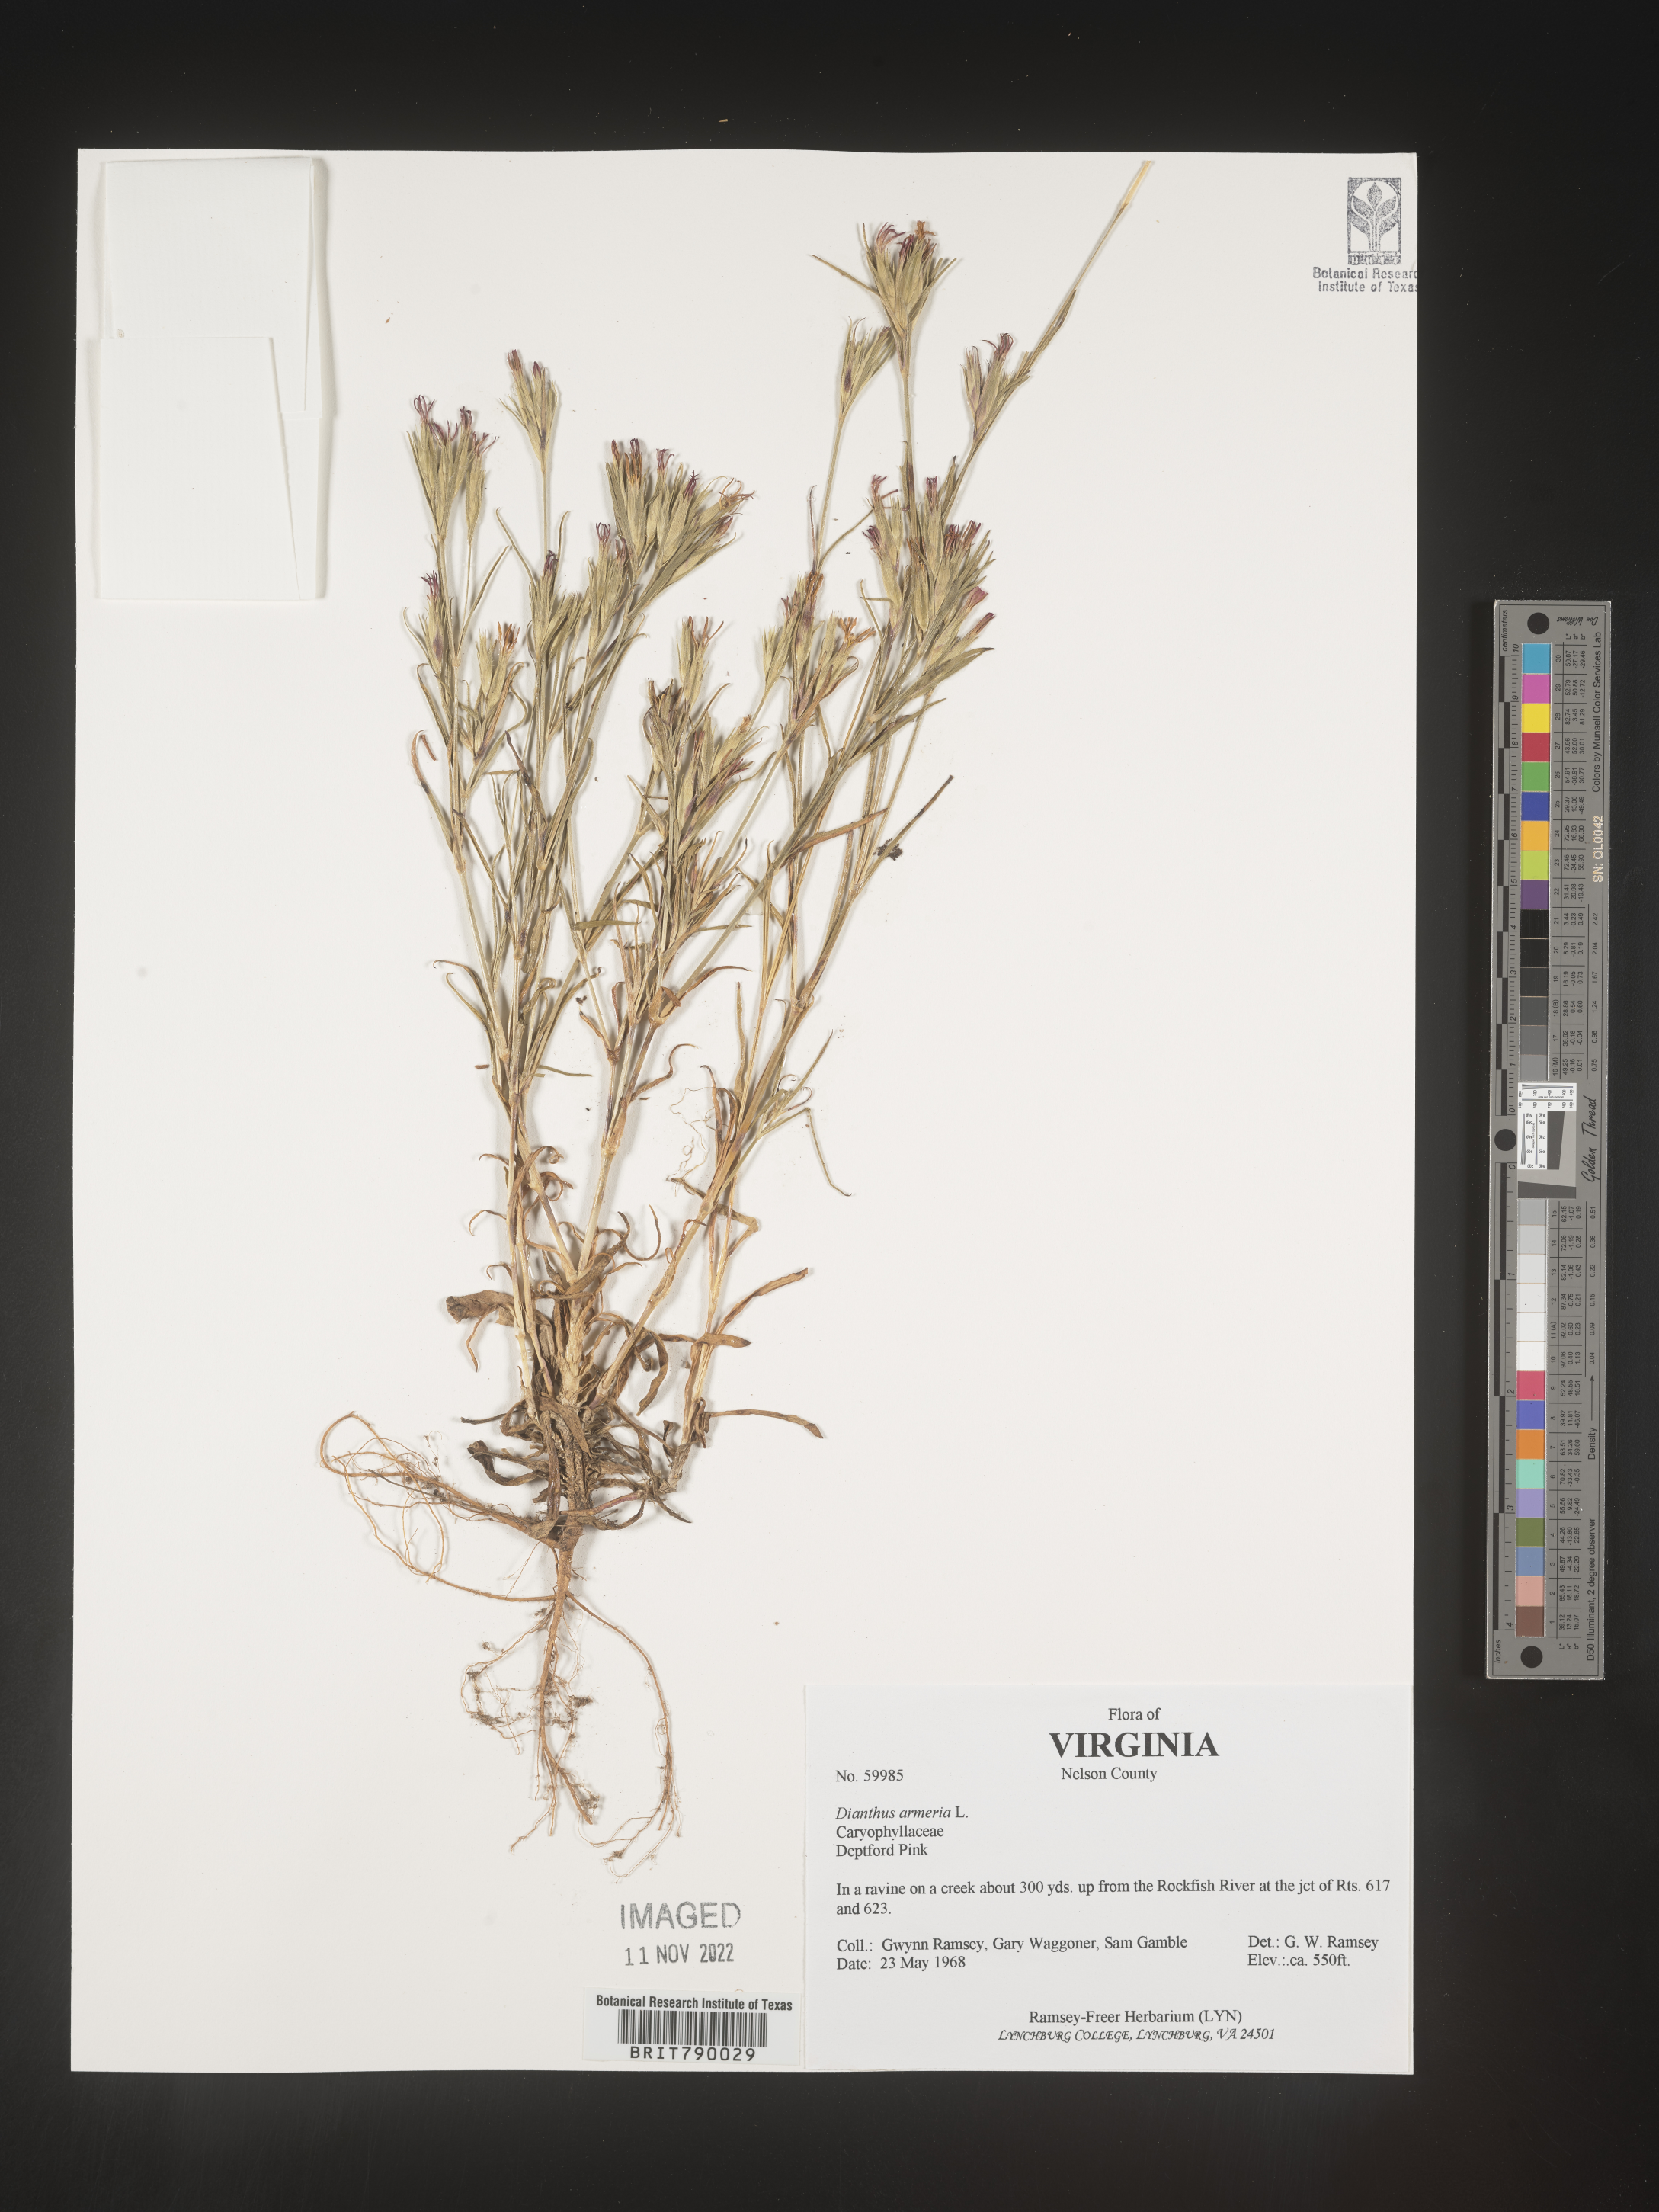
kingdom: Plantae
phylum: Tracheophyta
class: Magnoliopsida
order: Caryophyllales
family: Caryophyllaceae
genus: Dianthus
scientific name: Dianthus armeria
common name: Deptford pink
